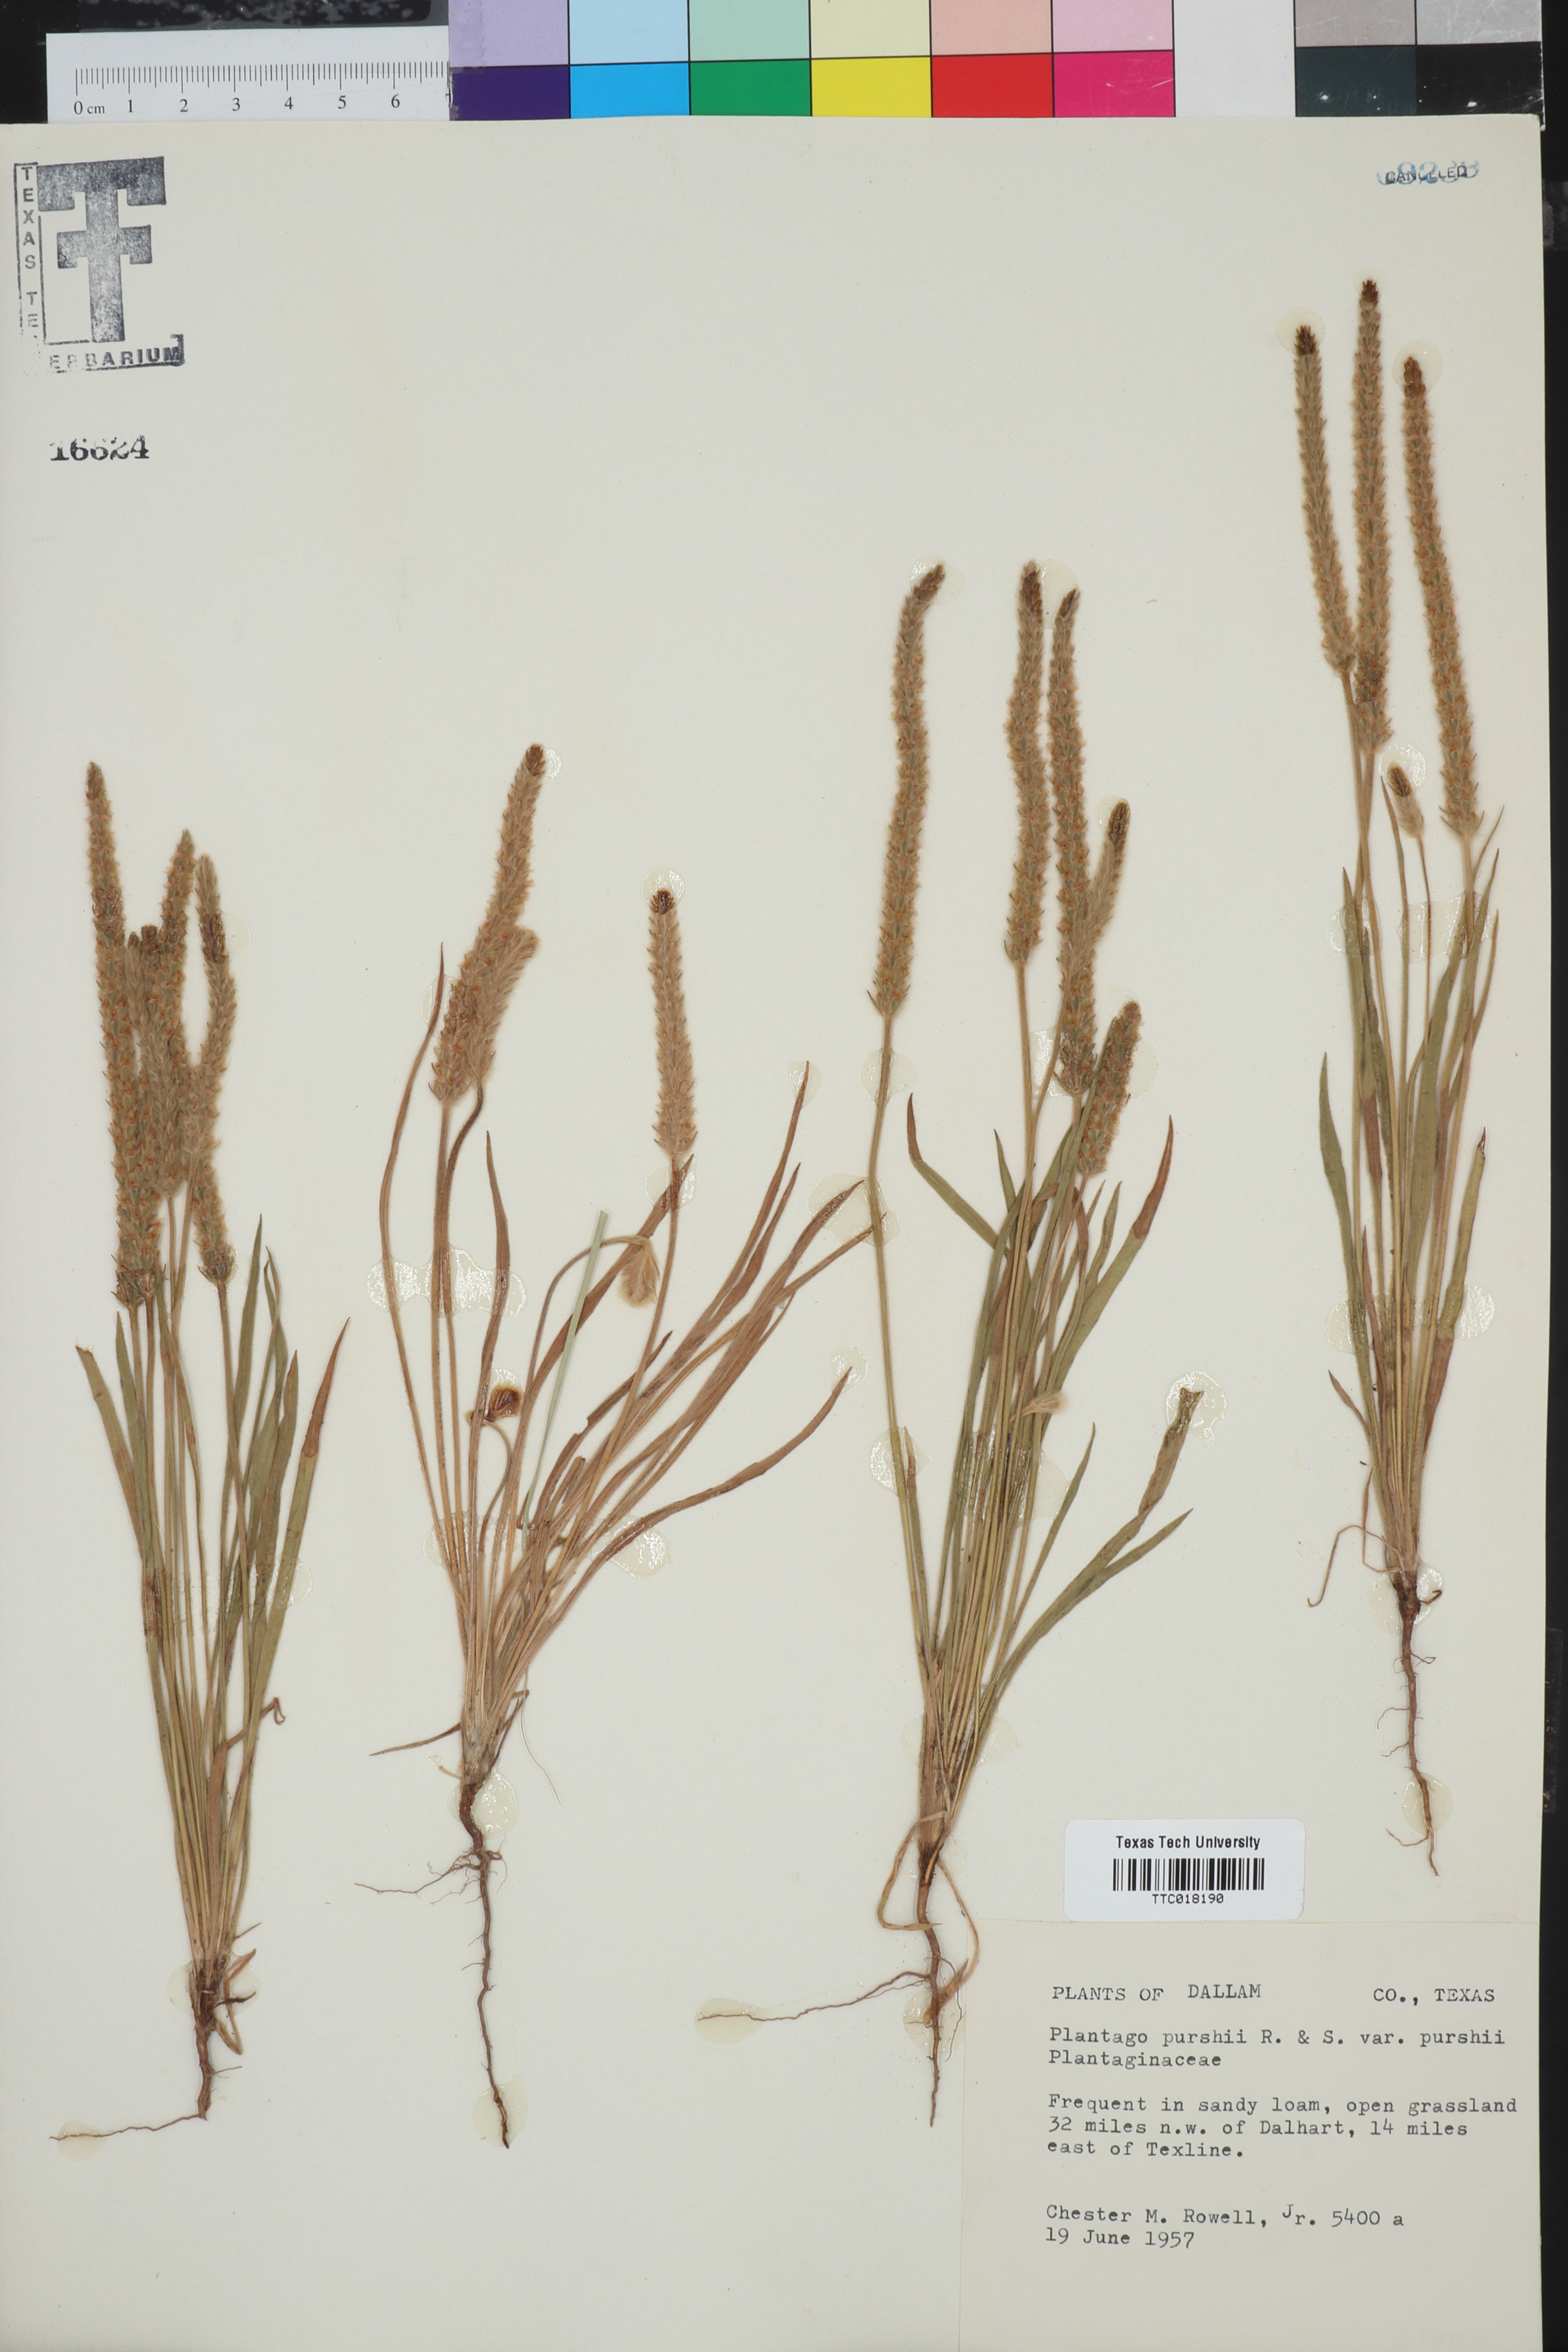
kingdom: Plantae
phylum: Tracheophyta
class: Magnoliopsida
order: Lamiales
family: Plantaginaceae
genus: Plantago
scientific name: Plantago patagonica
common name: Patagonia indian-wheat
